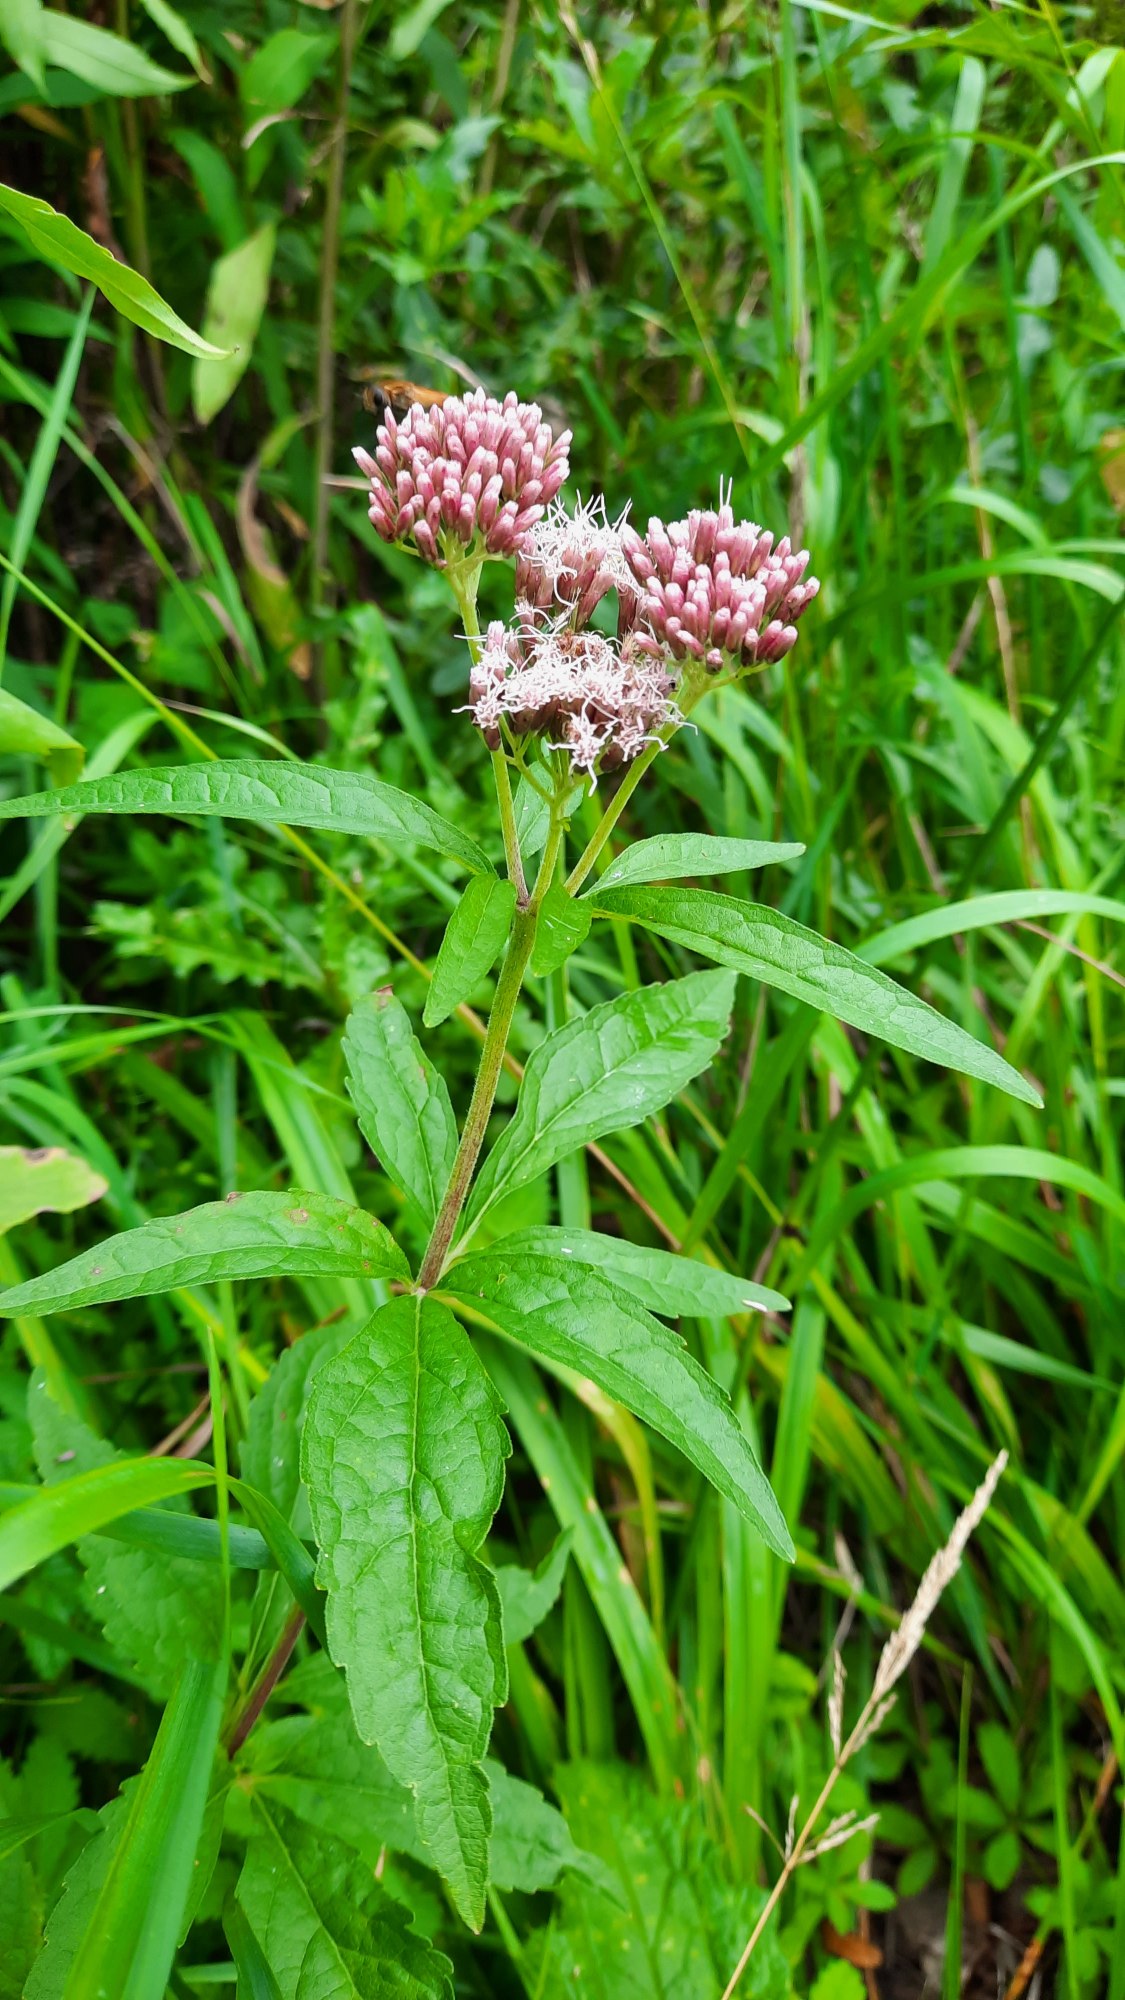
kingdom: Plantae
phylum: Tracheophyta
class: Magnoliopsida
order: Asterales
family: Asteraceae
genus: Eupatorium
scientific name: Eupatorium cannabinum
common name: Hjortetrøst
